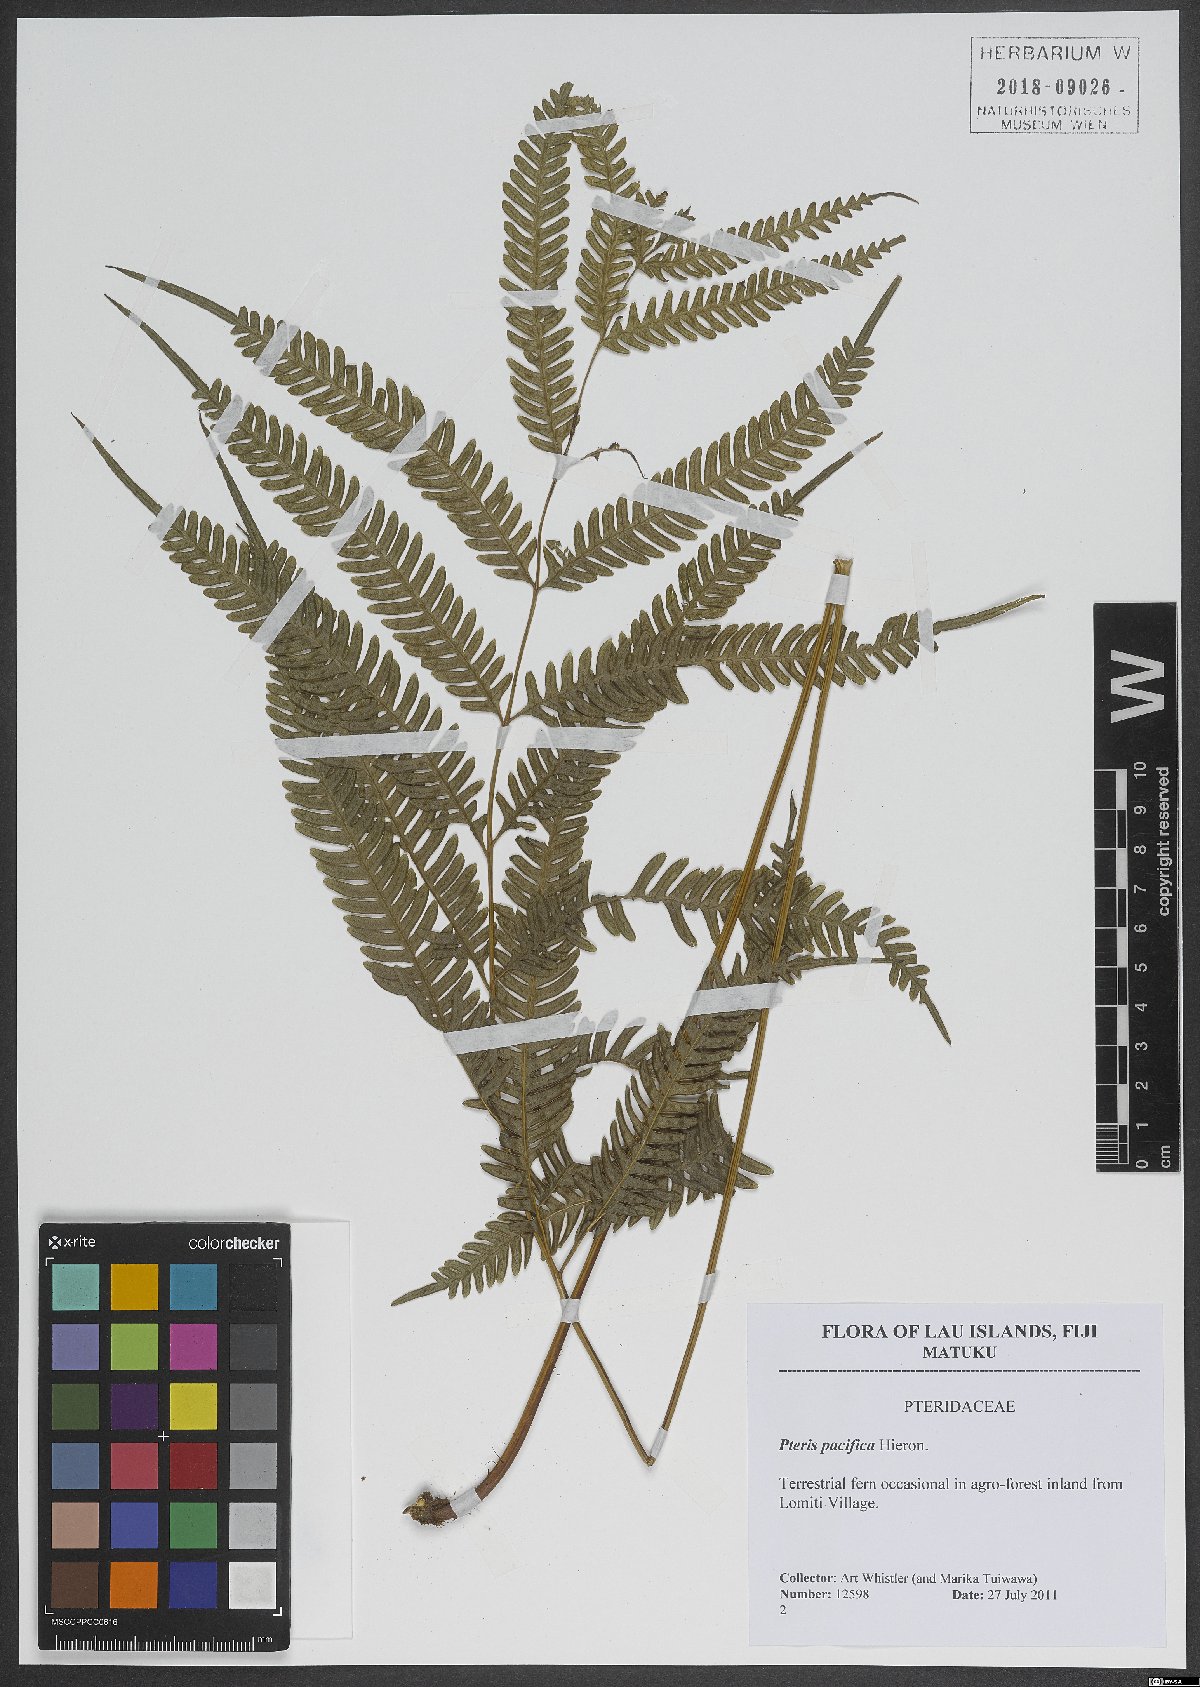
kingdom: Plantae
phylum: Tracheophyta
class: Polypodiopsida
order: Polypodiales
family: Pteridaceae
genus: Pteris
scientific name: Pteris biaurita
